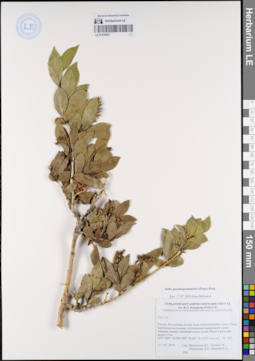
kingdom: Plantae
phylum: Tracheophyta
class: Magnoliopsida
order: Malpighiales
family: Salicaceae
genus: Salix
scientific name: Salix pseudopentandra
